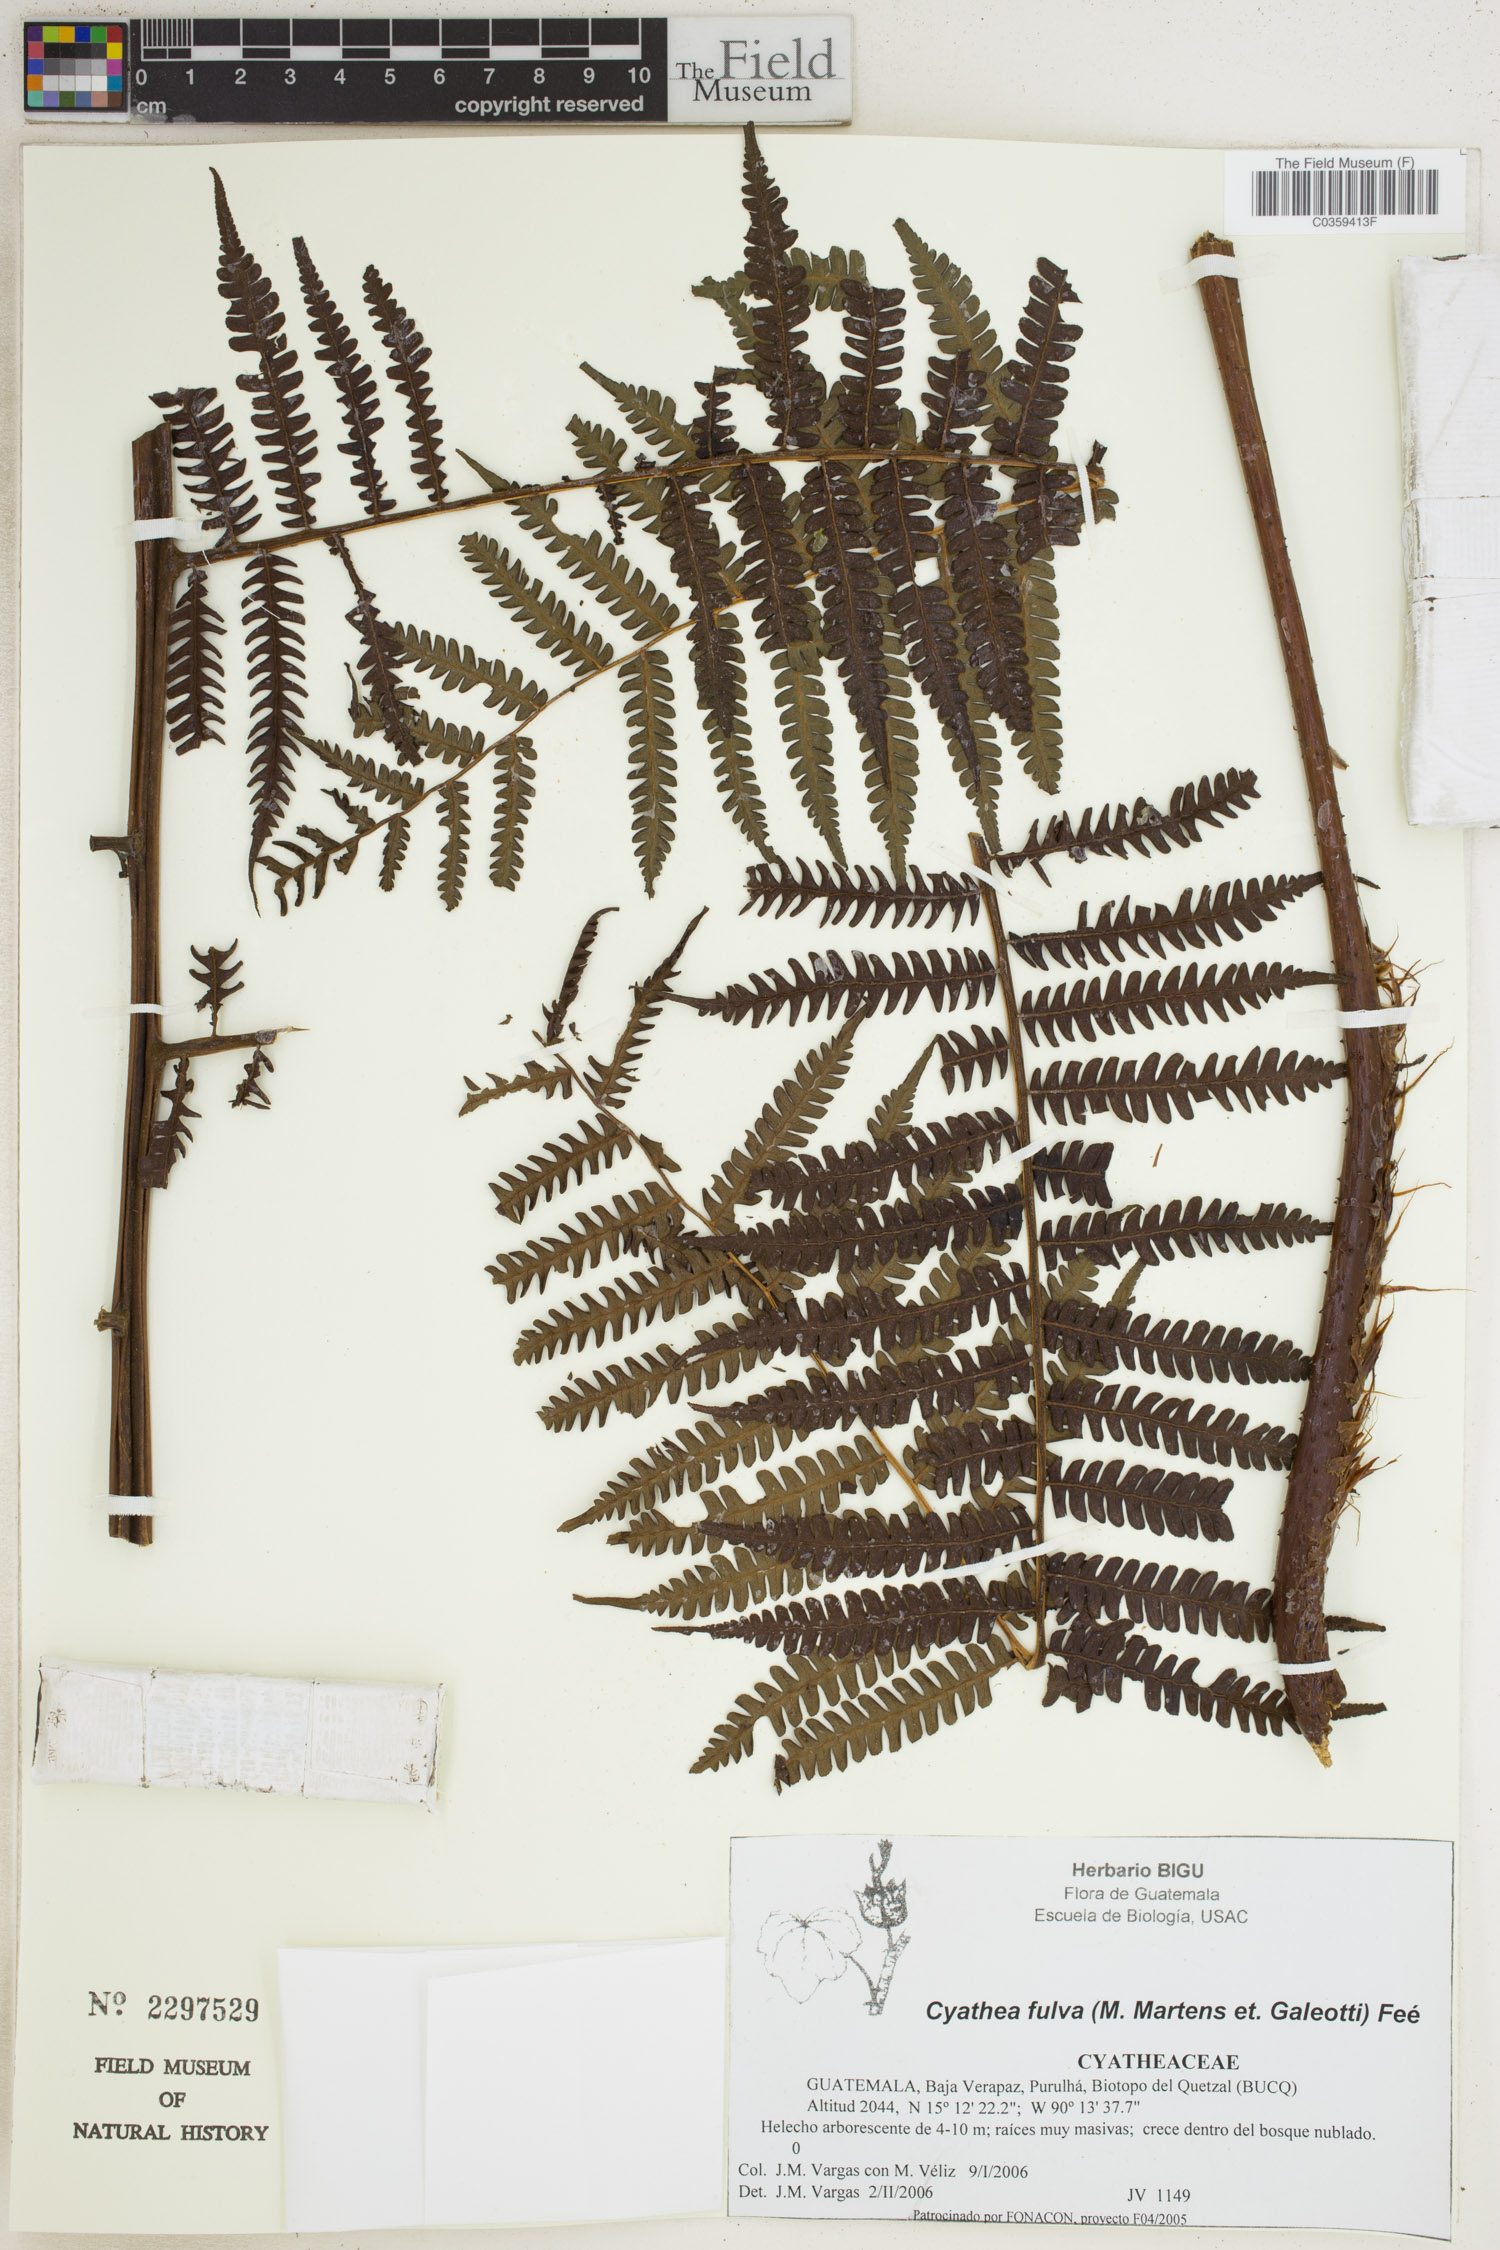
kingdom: Plantae
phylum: Tracheophyta
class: Polypodiopsida
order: Cyatheales
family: Cyatheaceae
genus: Cyathea
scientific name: Cyathea fulva
